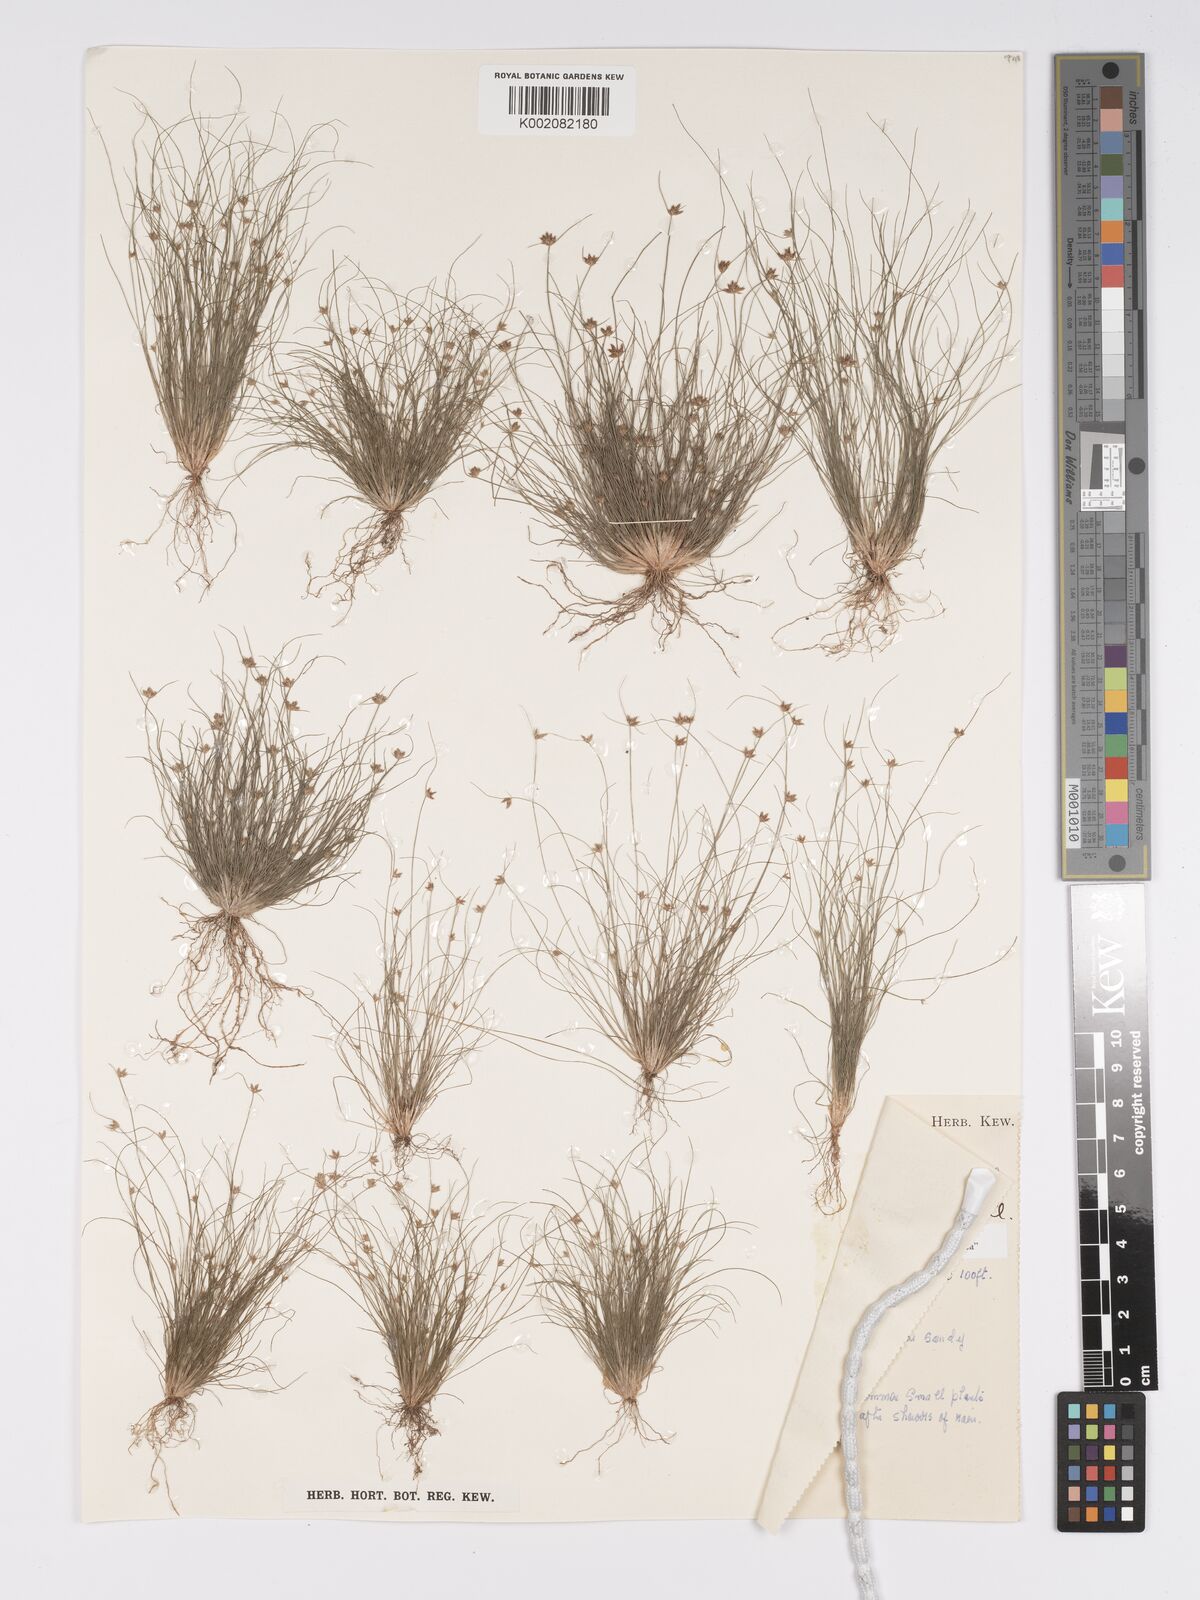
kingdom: Plantae
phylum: Tracheophyta
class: Liliopsida
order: Poales
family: Cyperaceae
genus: Bulbostylis
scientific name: Bulbostylis barbata
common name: Watergrass
